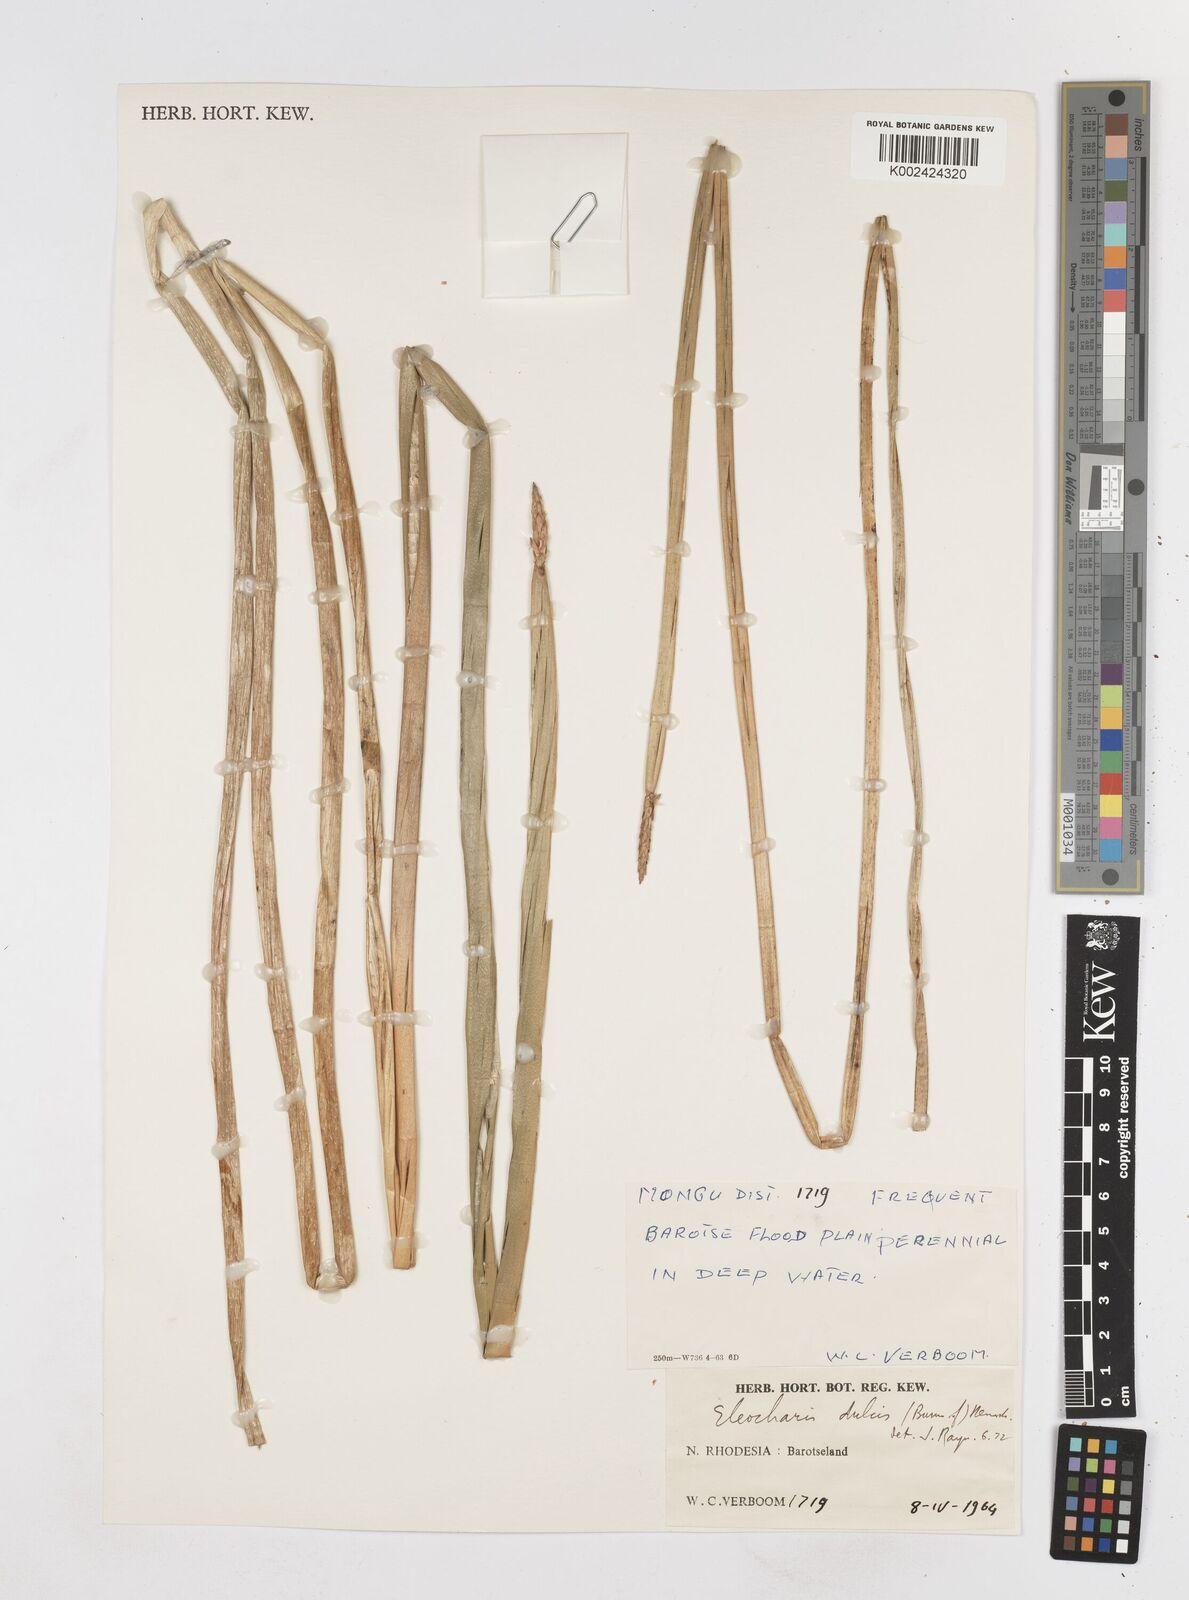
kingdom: Plantae
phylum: Tracheophyta
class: Liliopsida
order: Poales
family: Cyperaceae
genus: Eleocharis
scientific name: Eleocharis dulcis
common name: Chinese water chestnut
